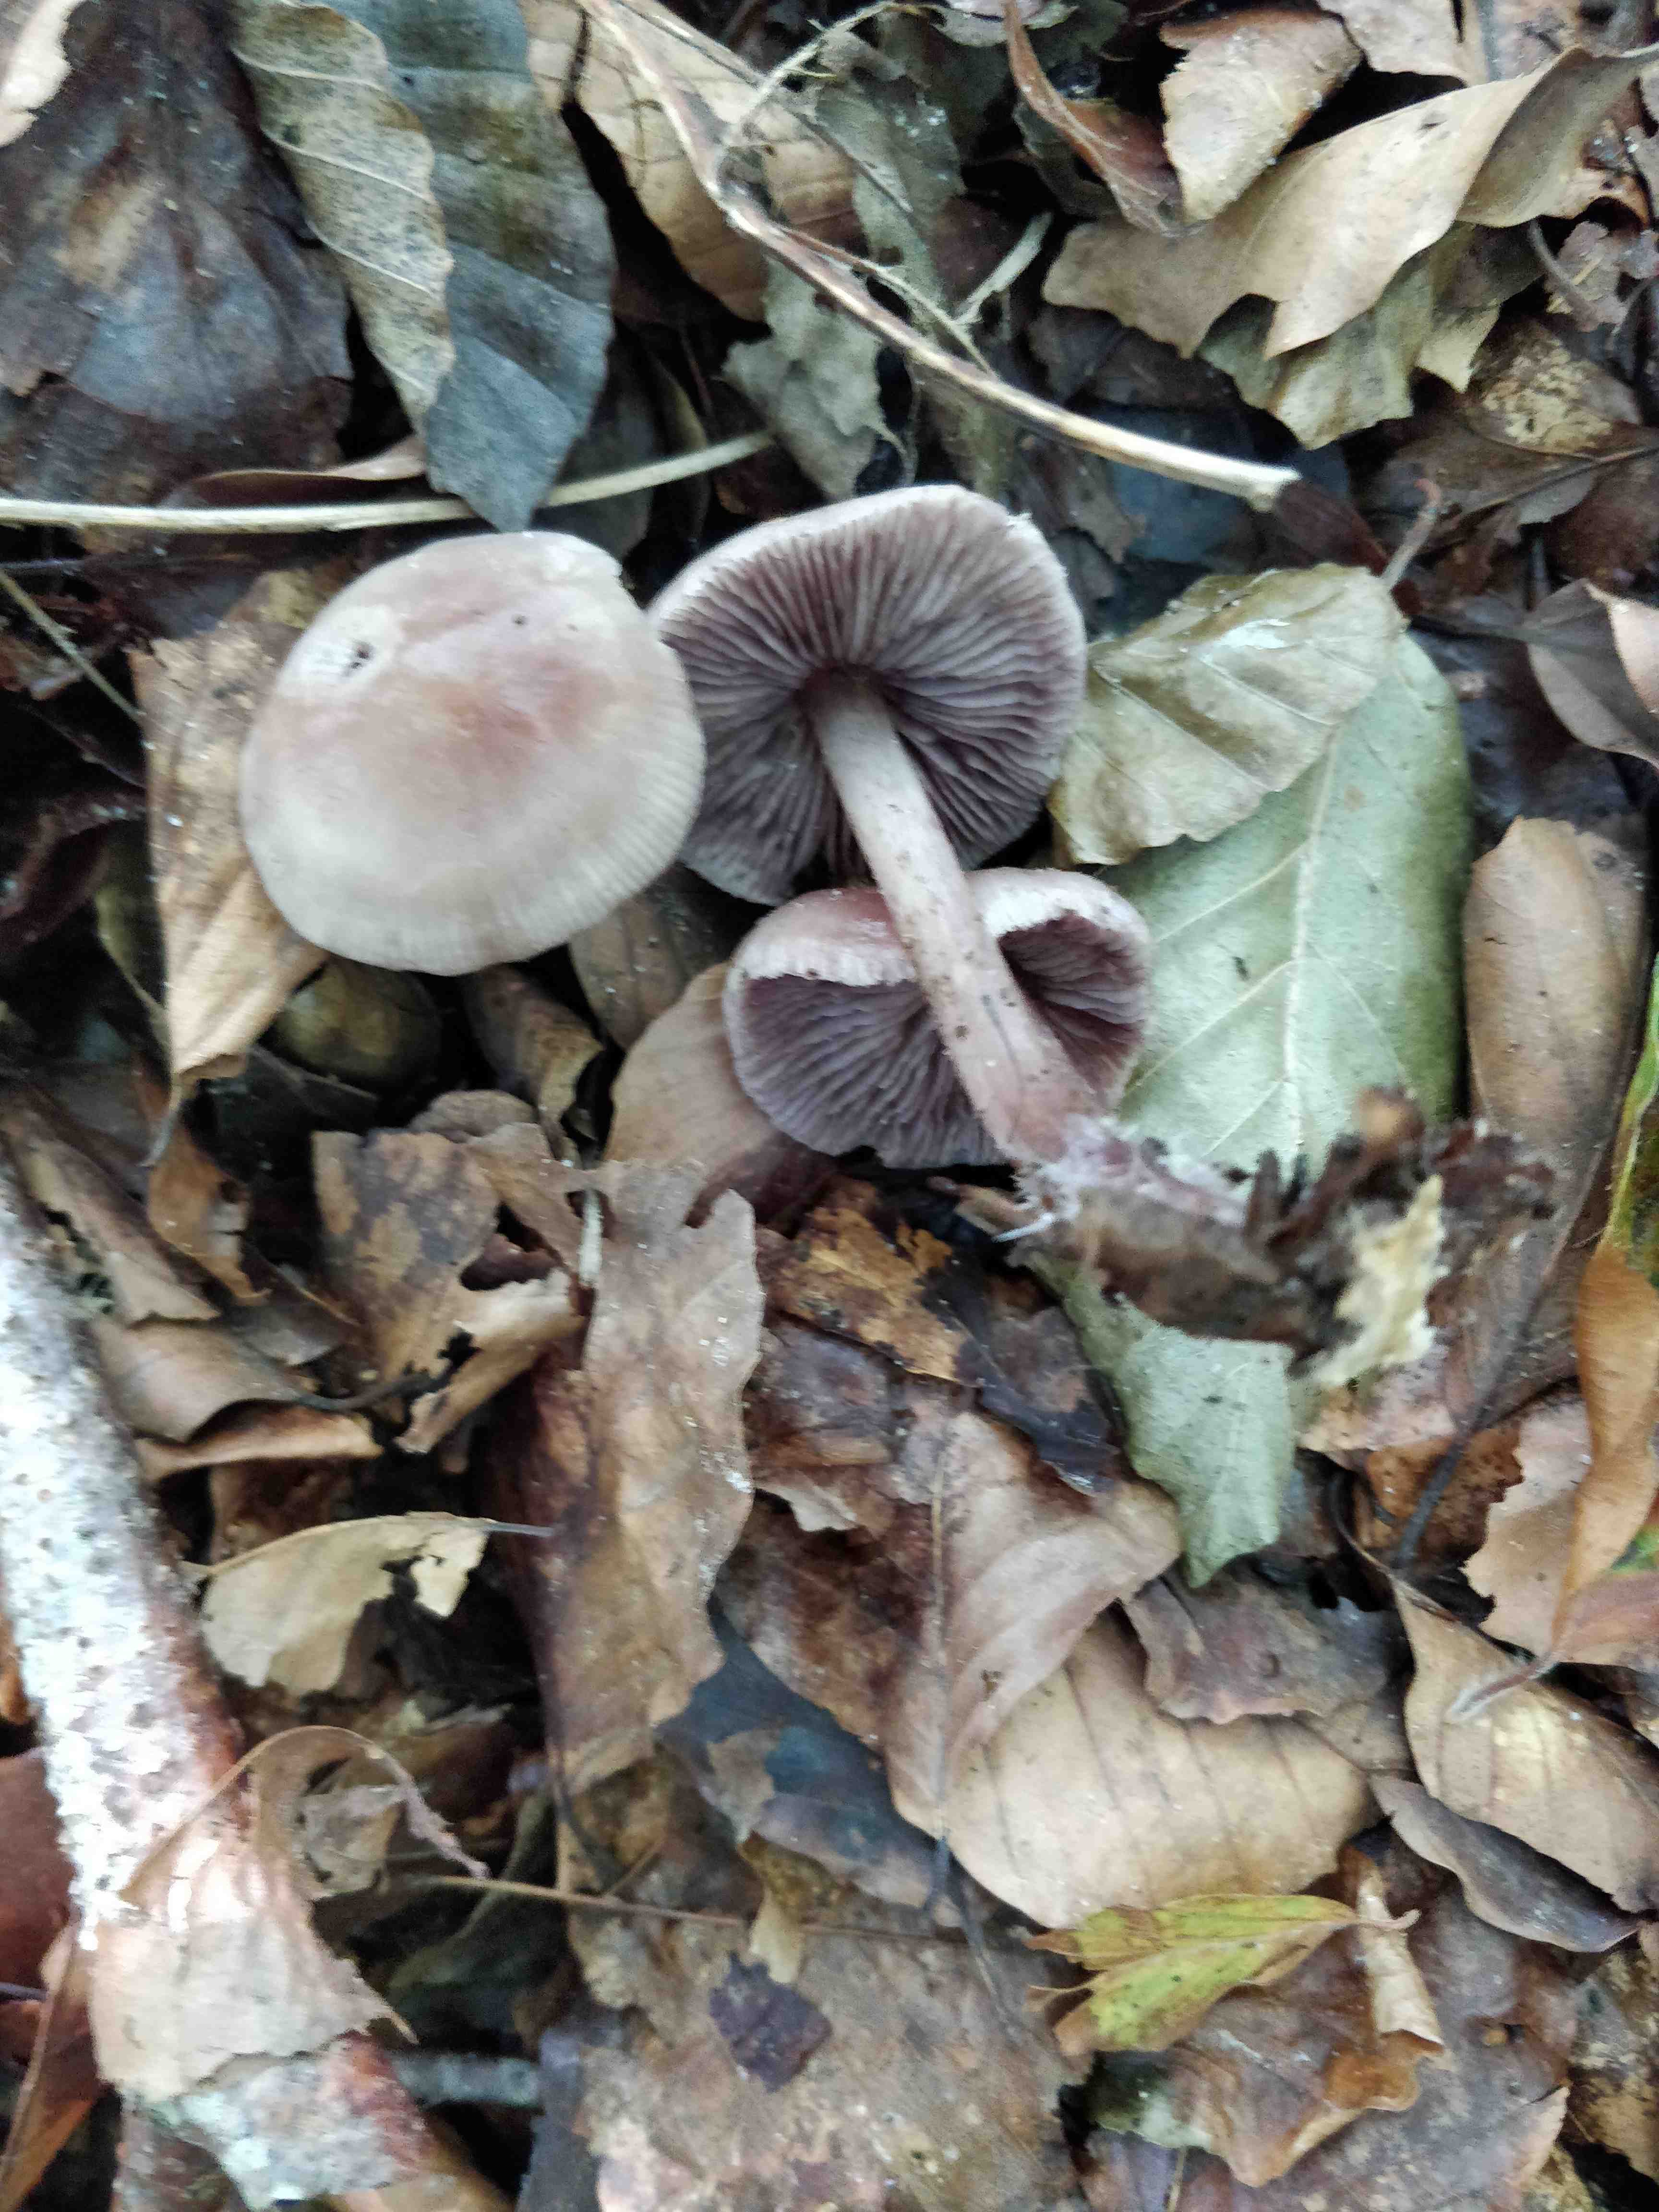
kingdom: Fungi
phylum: Basidiomycota
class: Agaricomycetes
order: Agaricales
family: Mycenaceae
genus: Mycena
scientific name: Mycena pelianthina
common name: mørkbladet huesvamp
